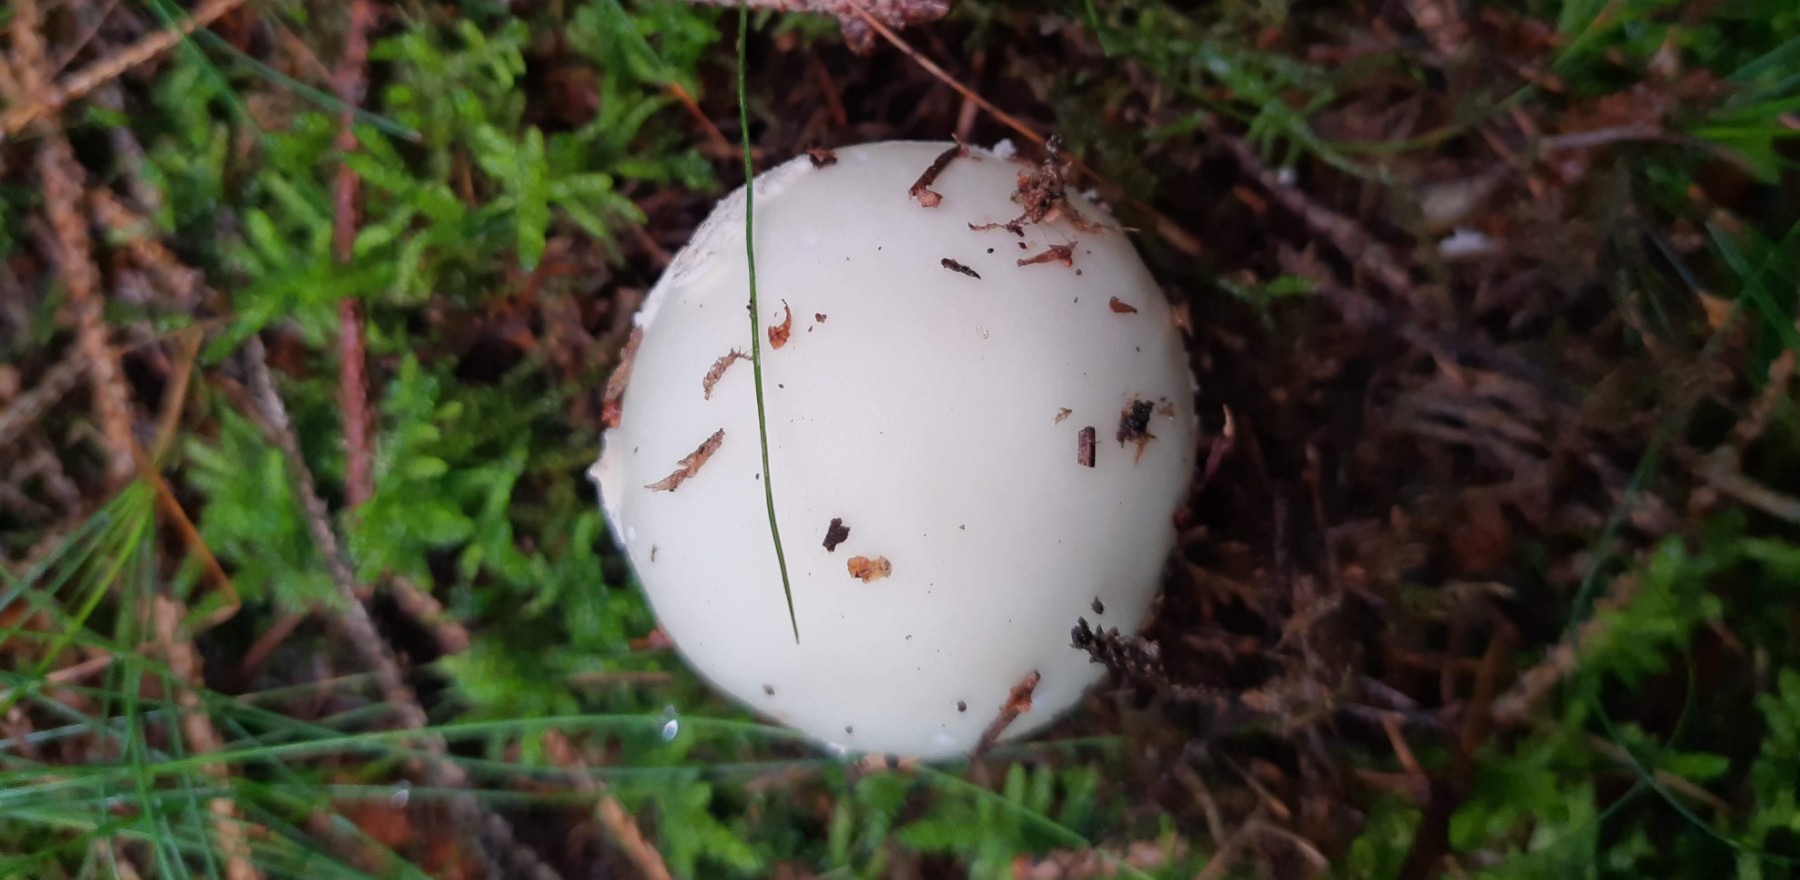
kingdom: Fungi
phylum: Basidiomycota
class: Agaricomycetes
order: Agaricales
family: Amanitaceae
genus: Amanita
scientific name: Amanita citrina
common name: kugleknoldet fluesvamp
